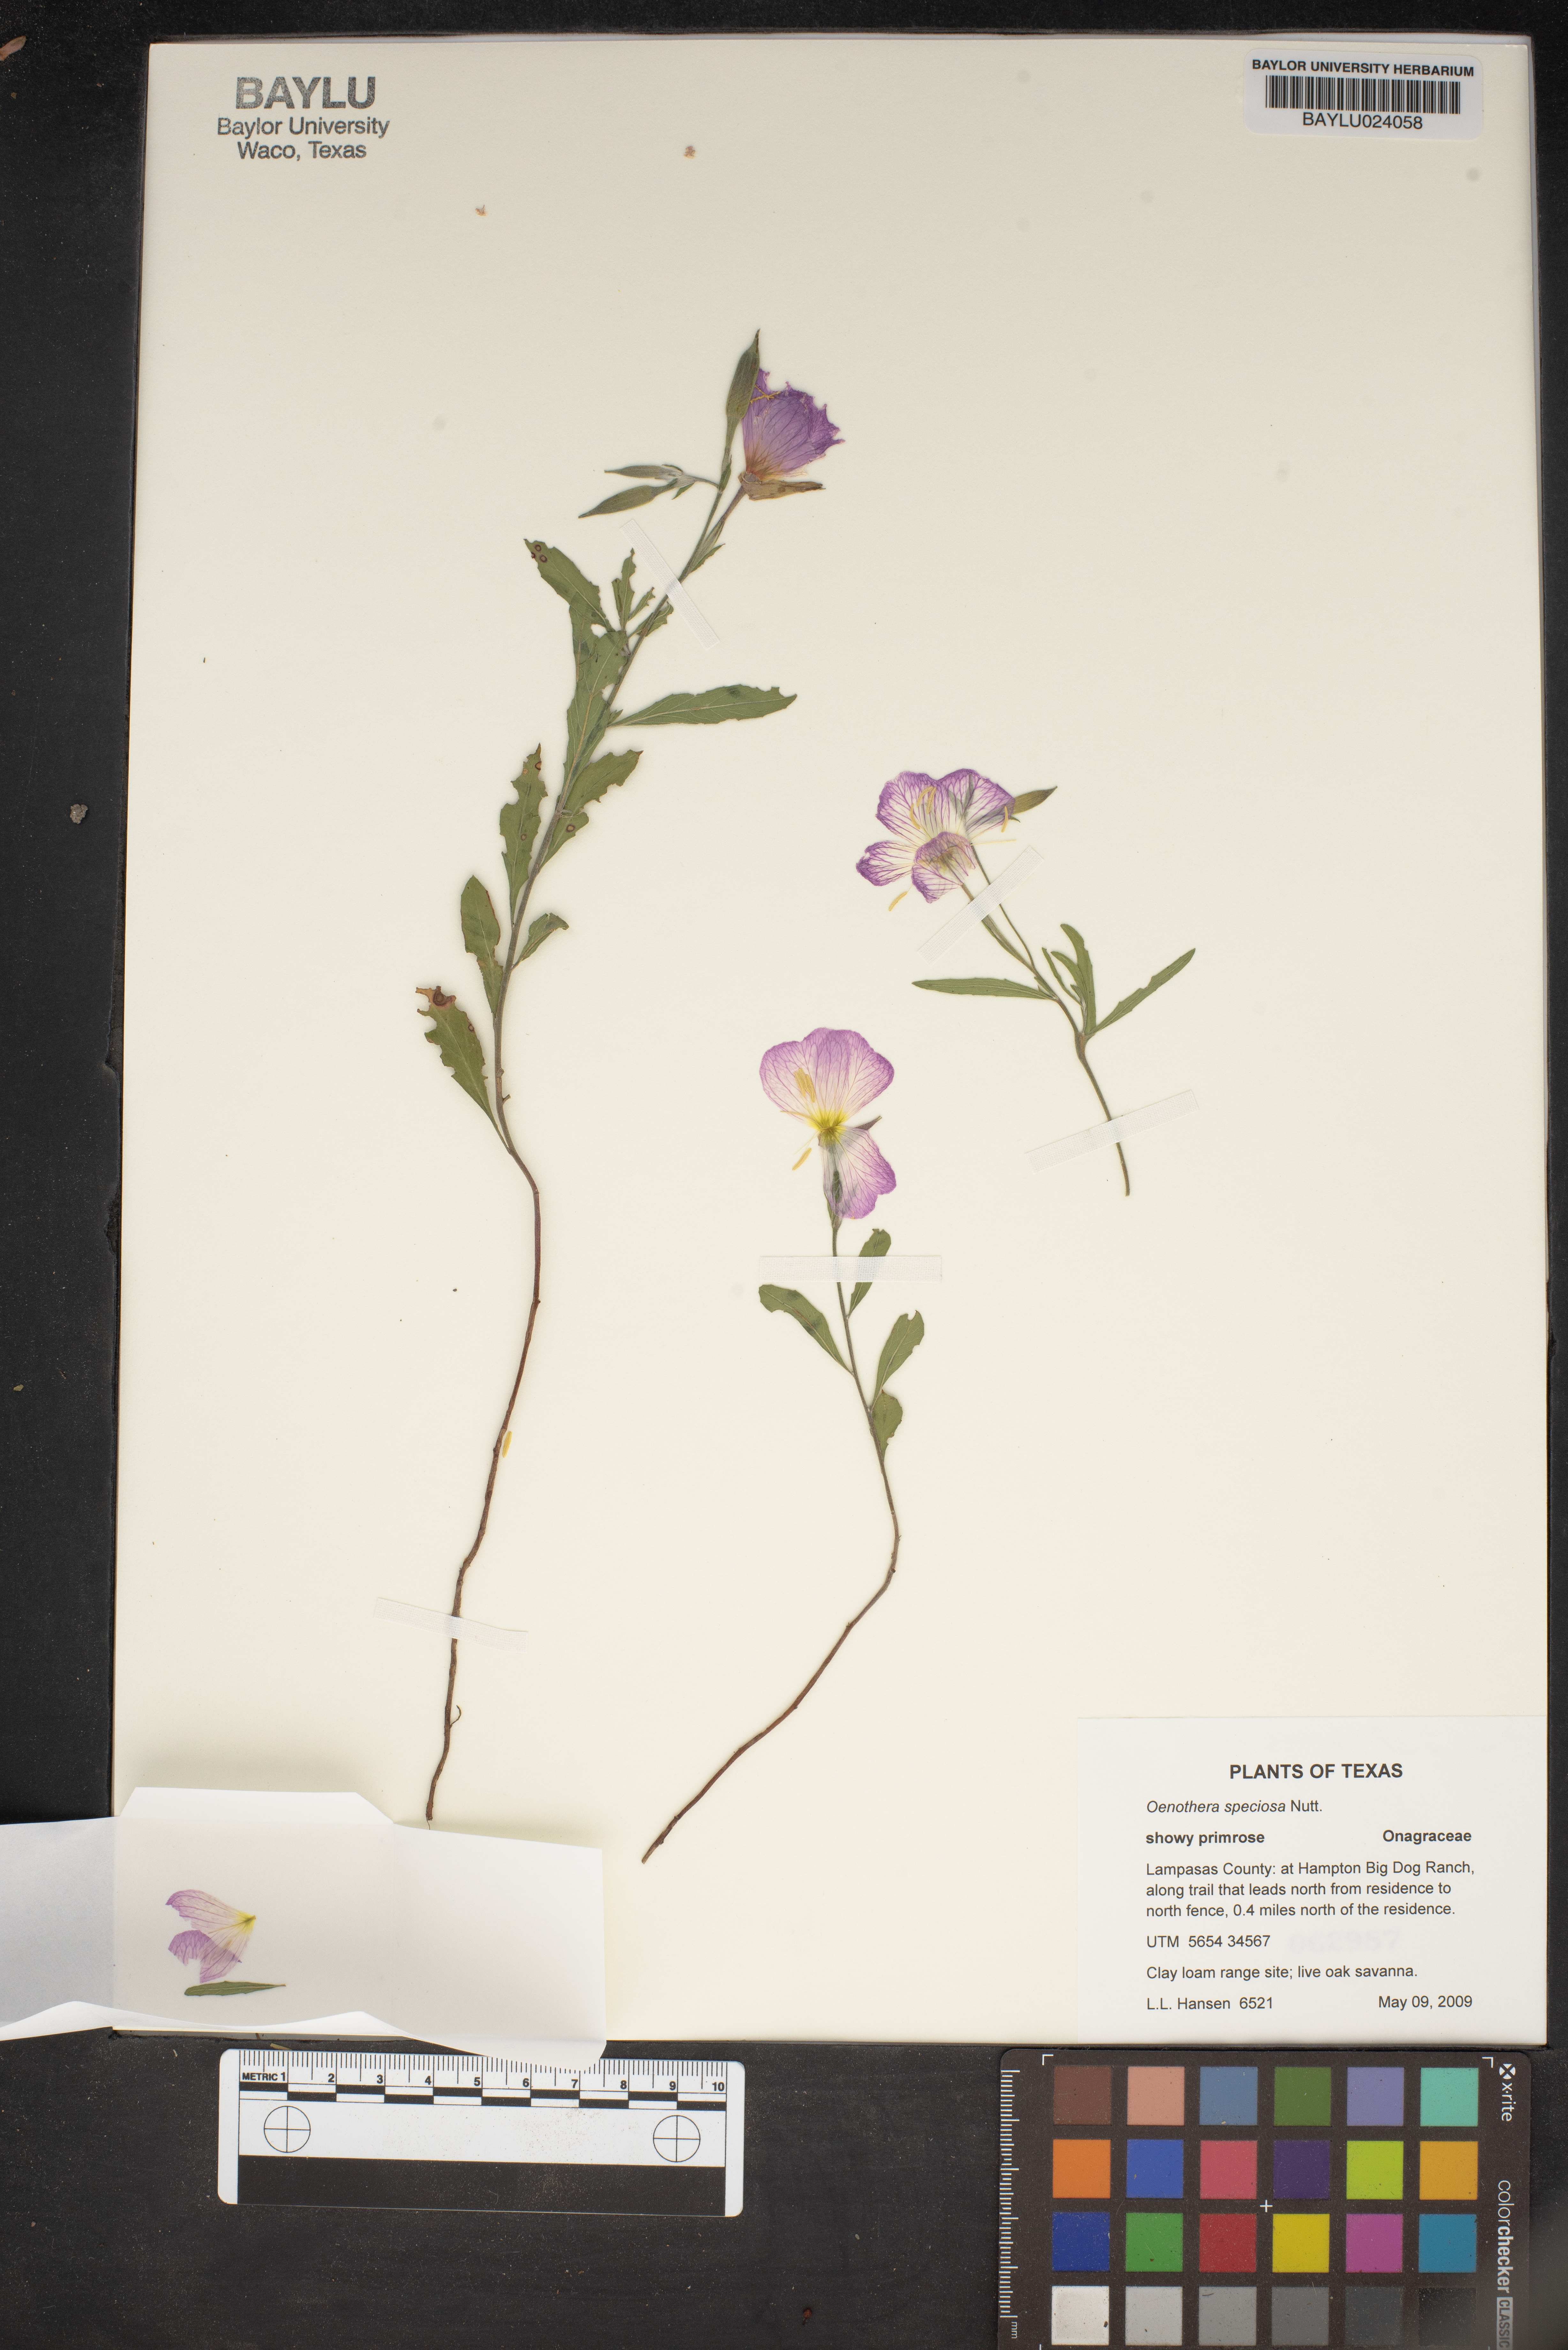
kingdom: Plantae
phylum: Tracheophyta
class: Magnoliopsida
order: Myrtales
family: Onagraceae
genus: Oenothera
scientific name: Oenothera speciosa
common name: White evening-primrose
